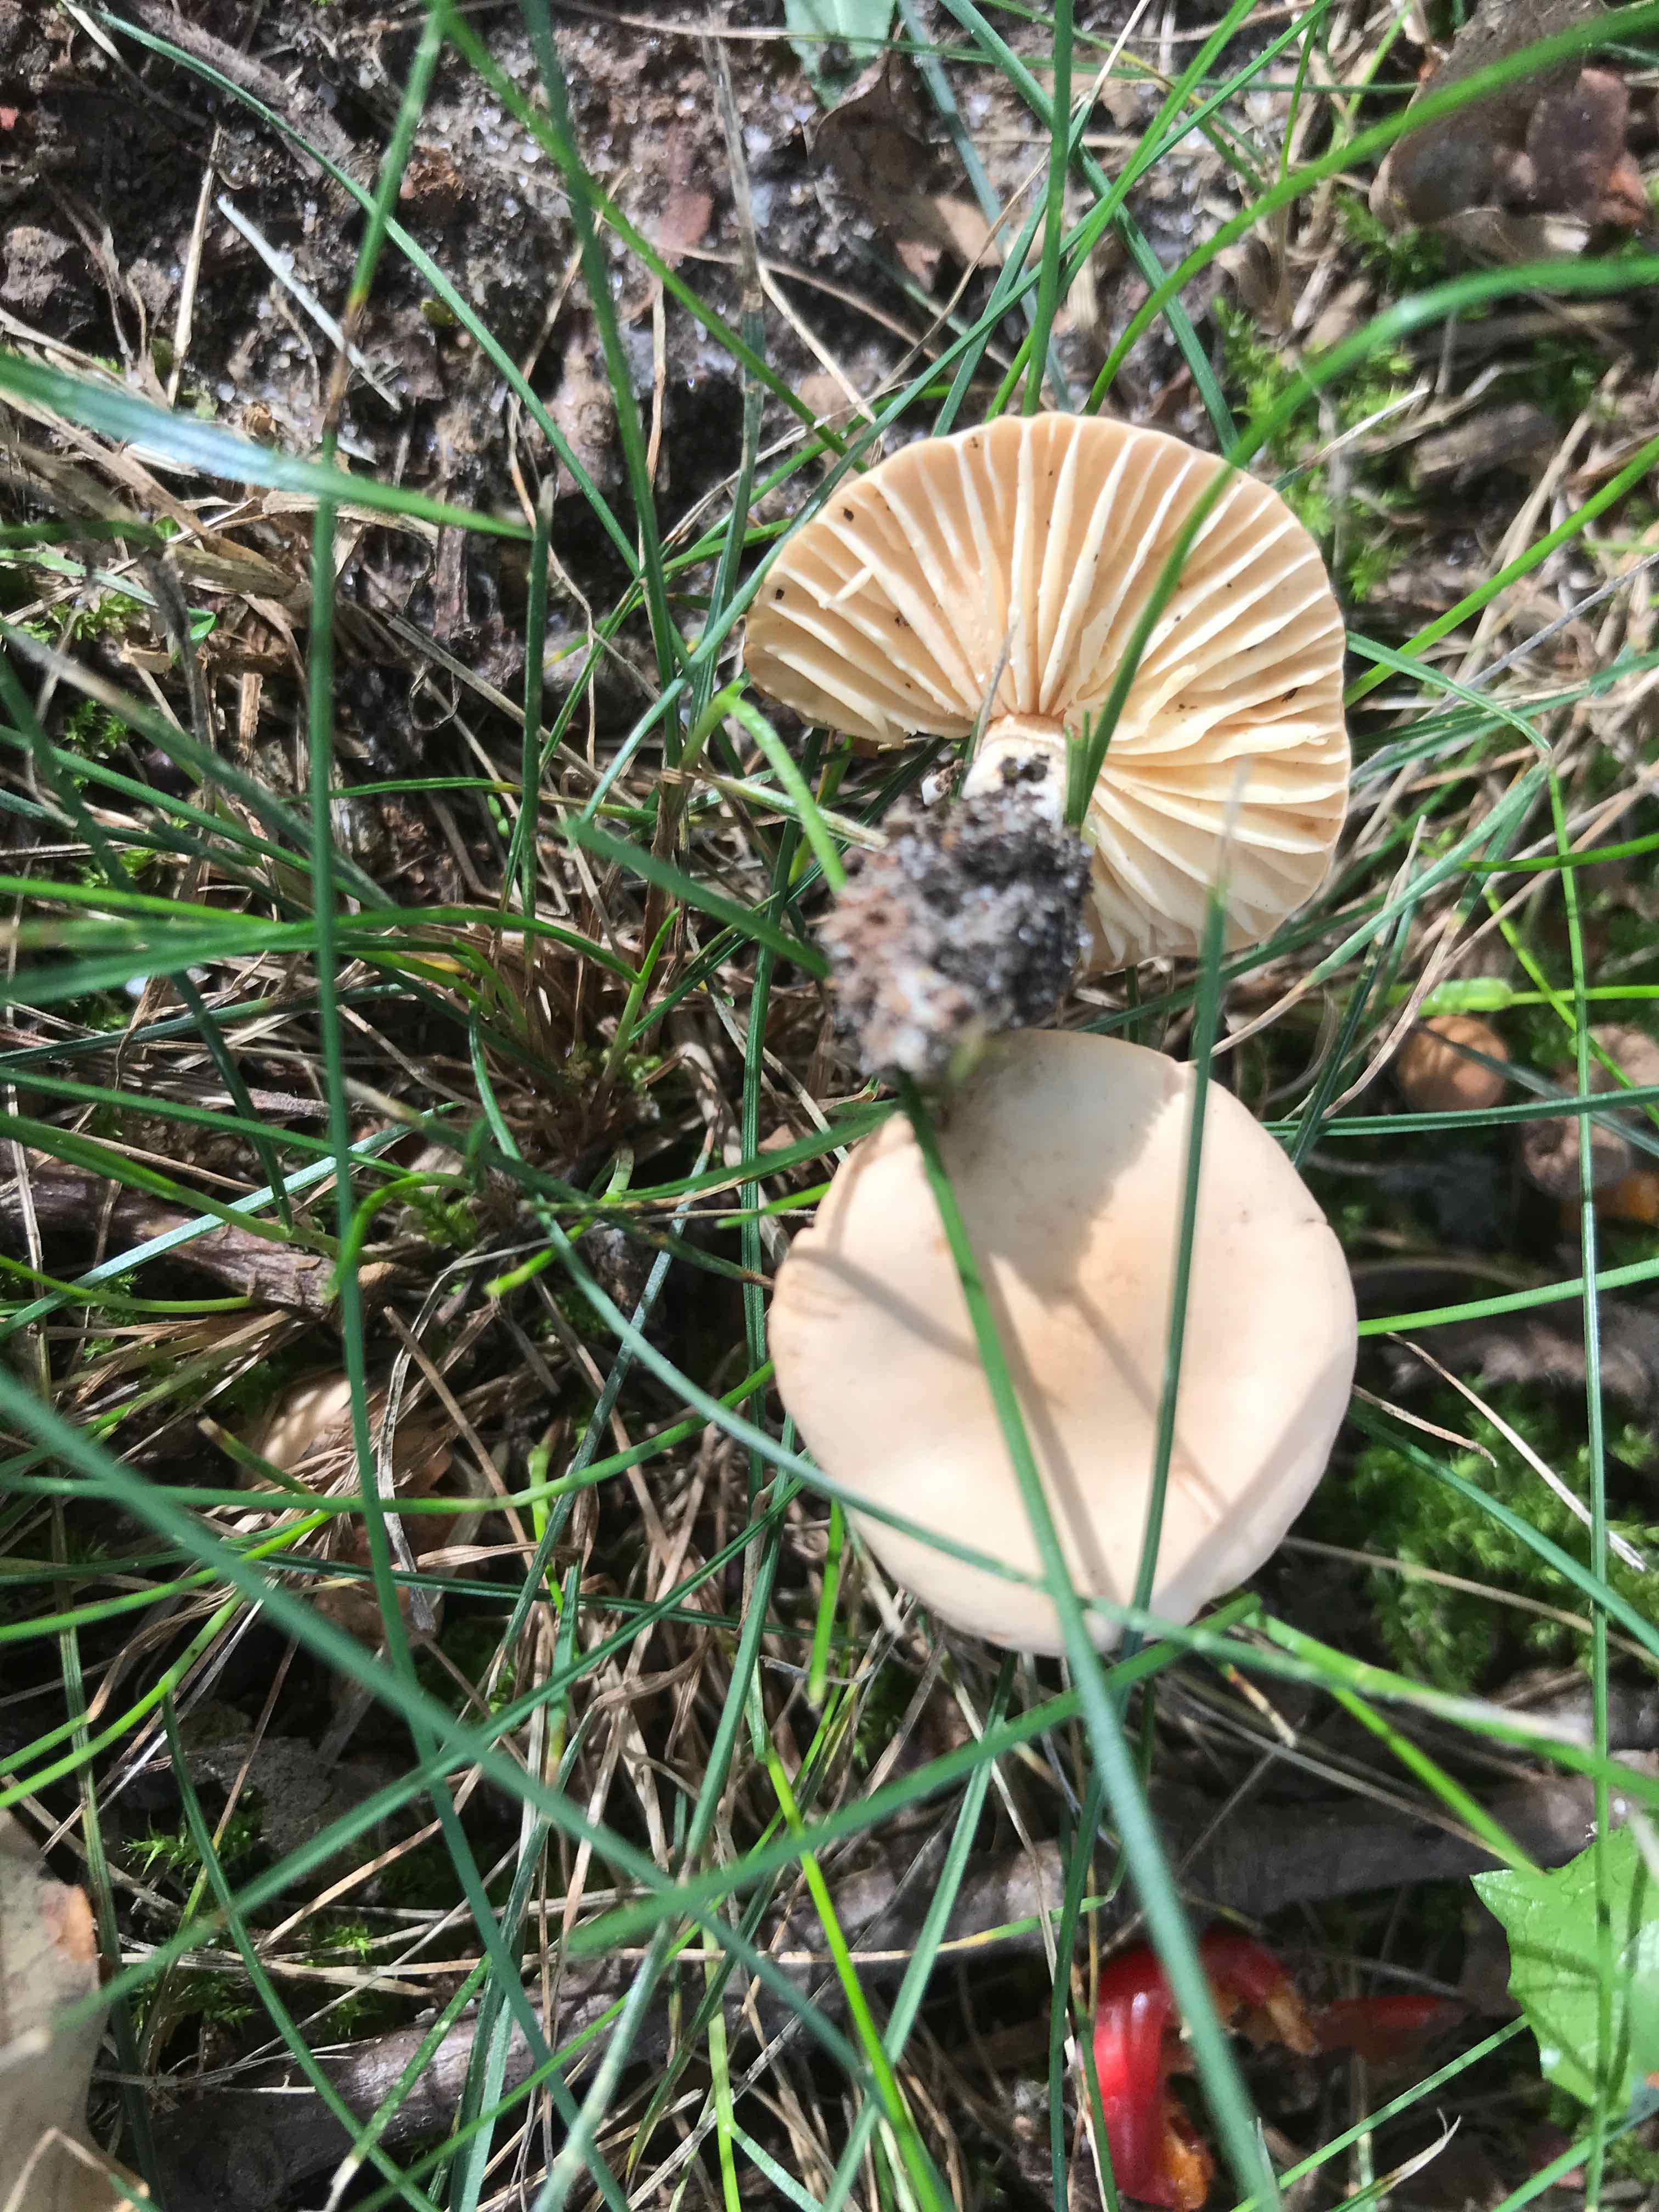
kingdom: Fungi
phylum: Basidiomycota
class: Agaricomycetes
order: Agaricales
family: Marasmiaceae
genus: Marasmius
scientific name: Marasmius oreades
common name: elledans-bruskhat
